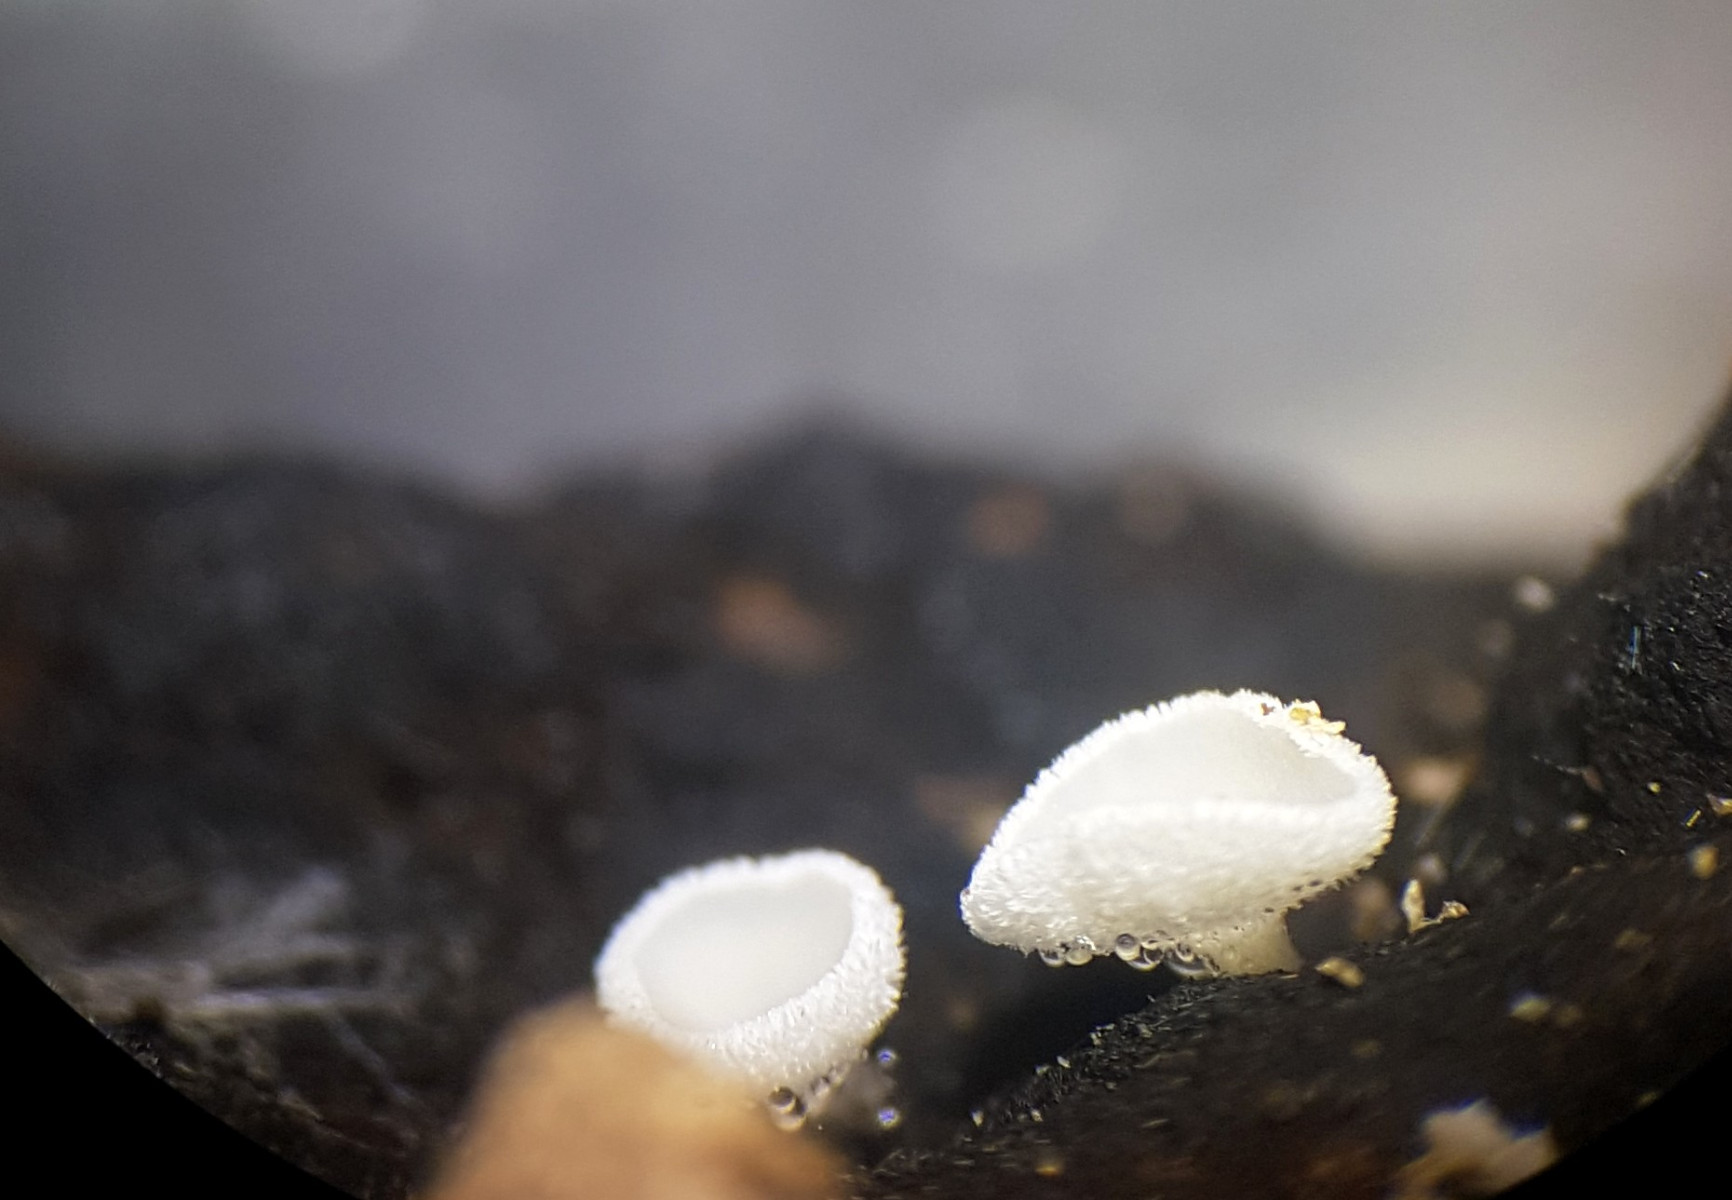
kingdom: Fungi
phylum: Ascomycota
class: Leotiomycetes
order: Helotiales
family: Lachnaceae
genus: Lachnum
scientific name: Lachnum
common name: frynseskive
